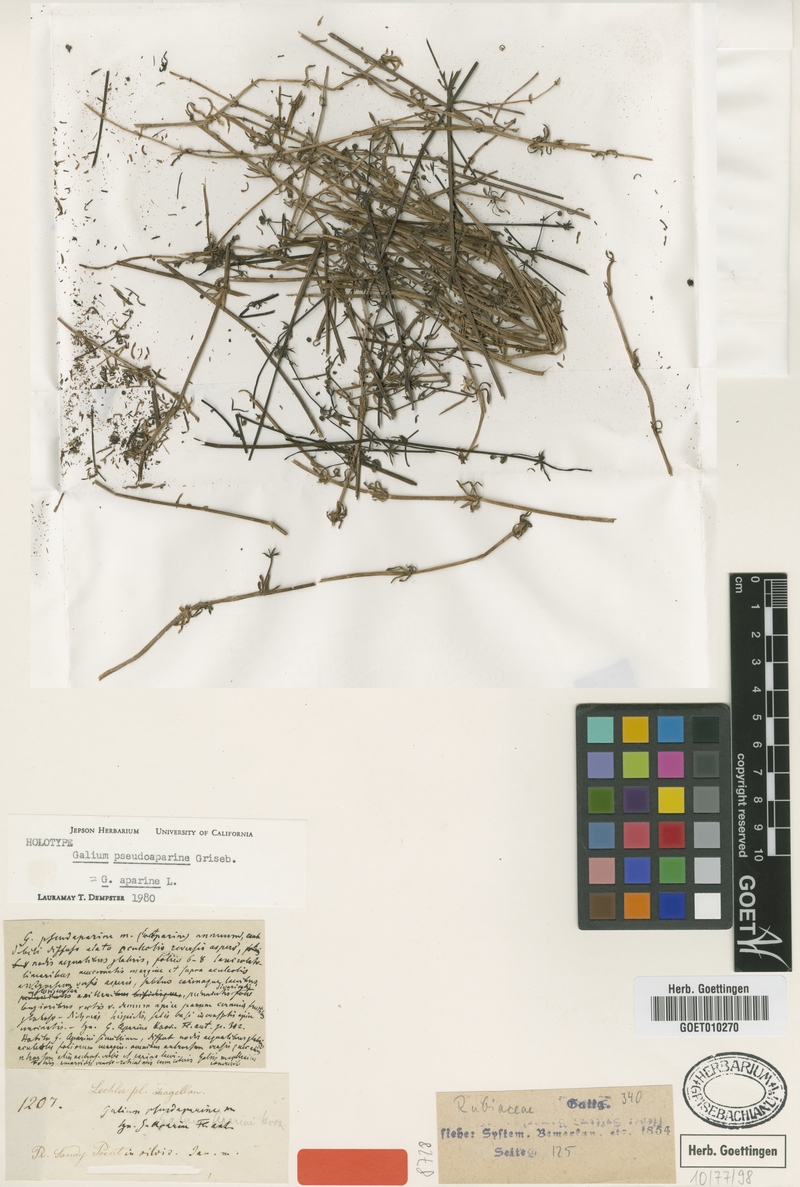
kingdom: Plantae
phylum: Tracheophyta
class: Magnoliopsida
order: Gentianales
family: Rubiaceae
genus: Galium
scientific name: Galium aparine
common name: Cleavers
